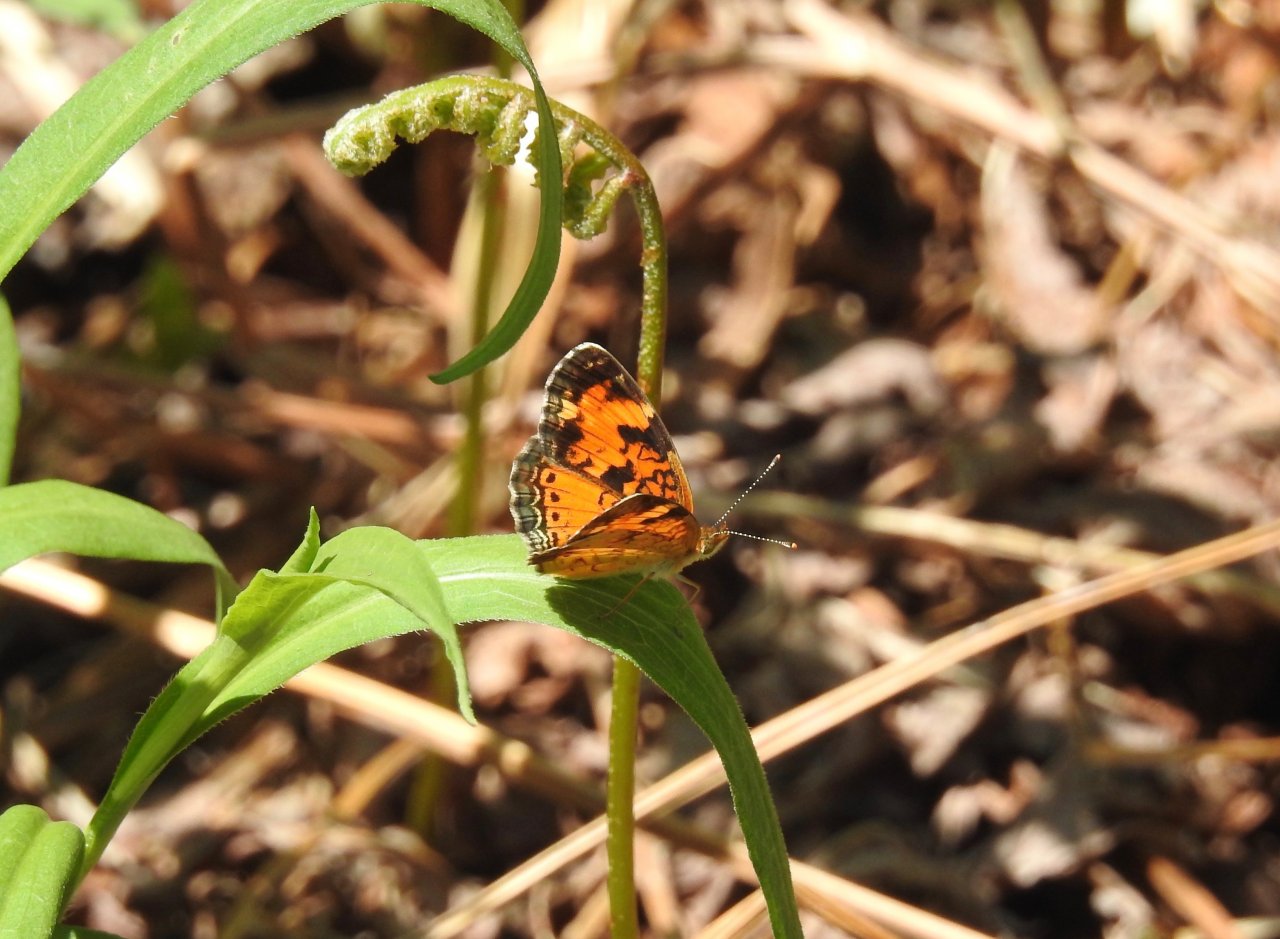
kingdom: Animalia
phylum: Arthropoda
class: Insecta
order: Lepidoptera
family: Nymphalidae
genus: Phyciodes
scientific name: Phyciodes tharos
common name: Northern Crescent
